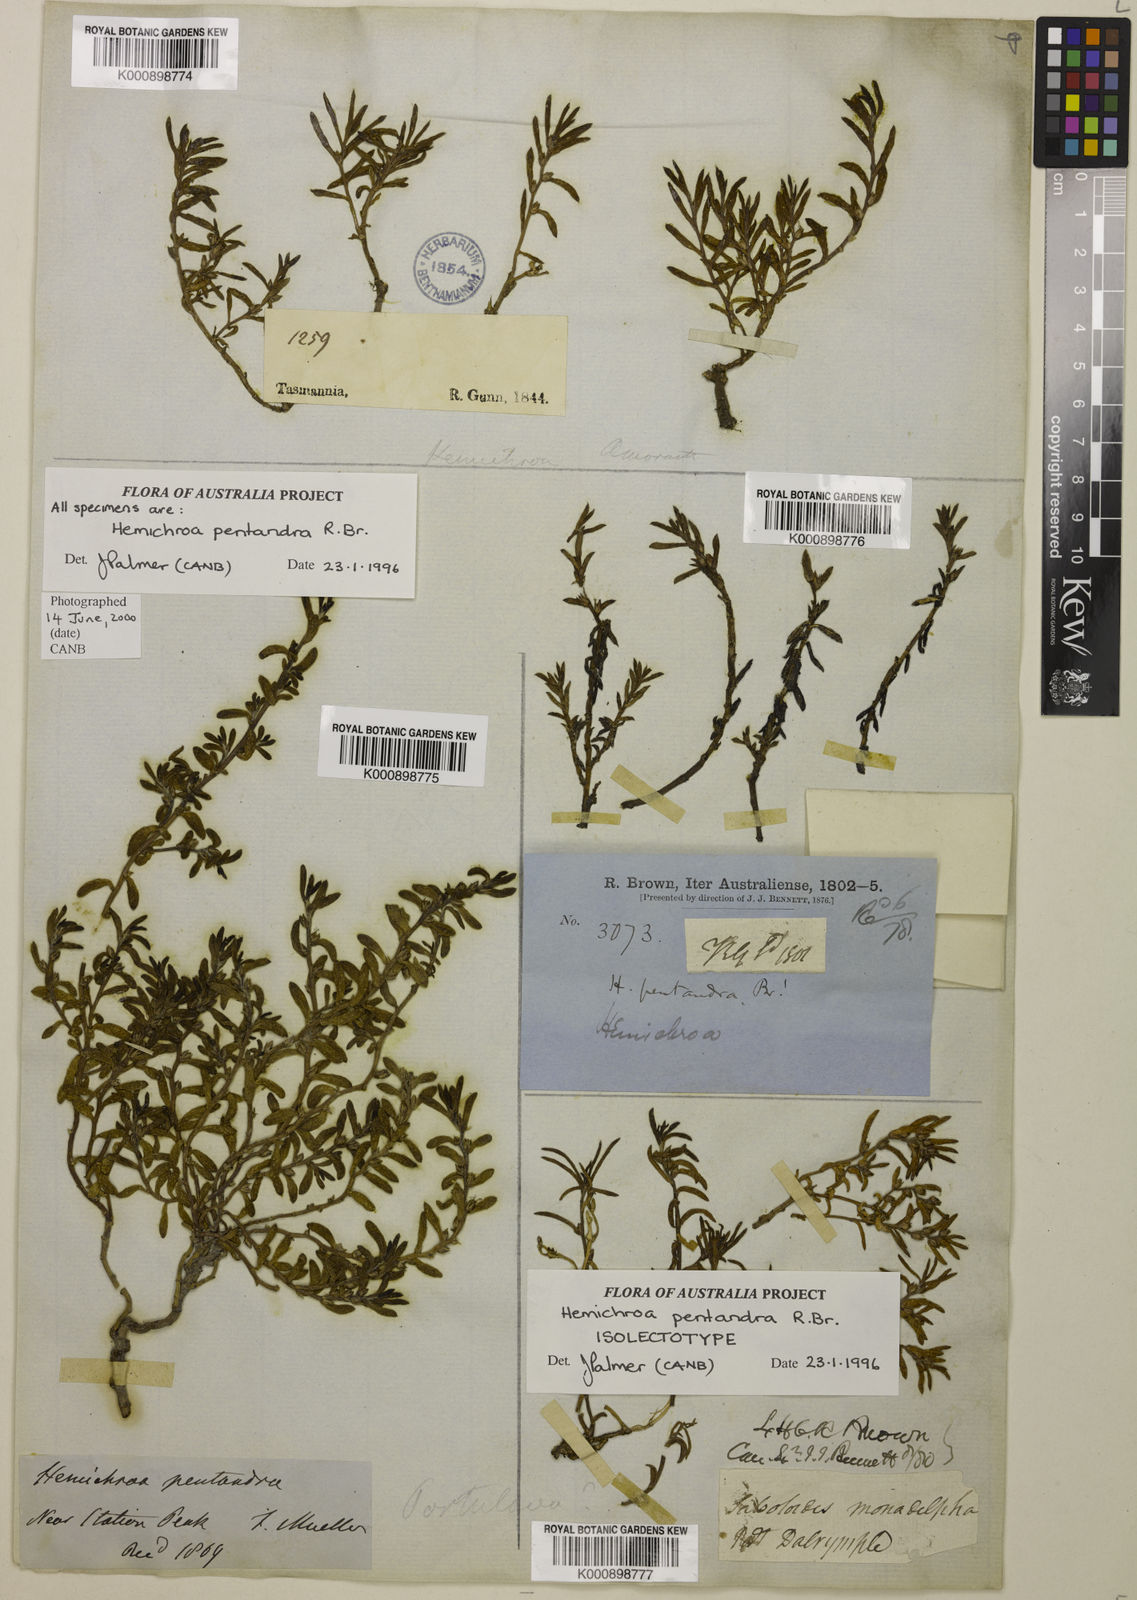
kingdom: Plantae
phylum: Tracheophyta
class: Magnoliopsida
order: Caryophyllales
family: Amaranthaceae
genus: Hemichroa
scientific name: Hemichroa pentandra
